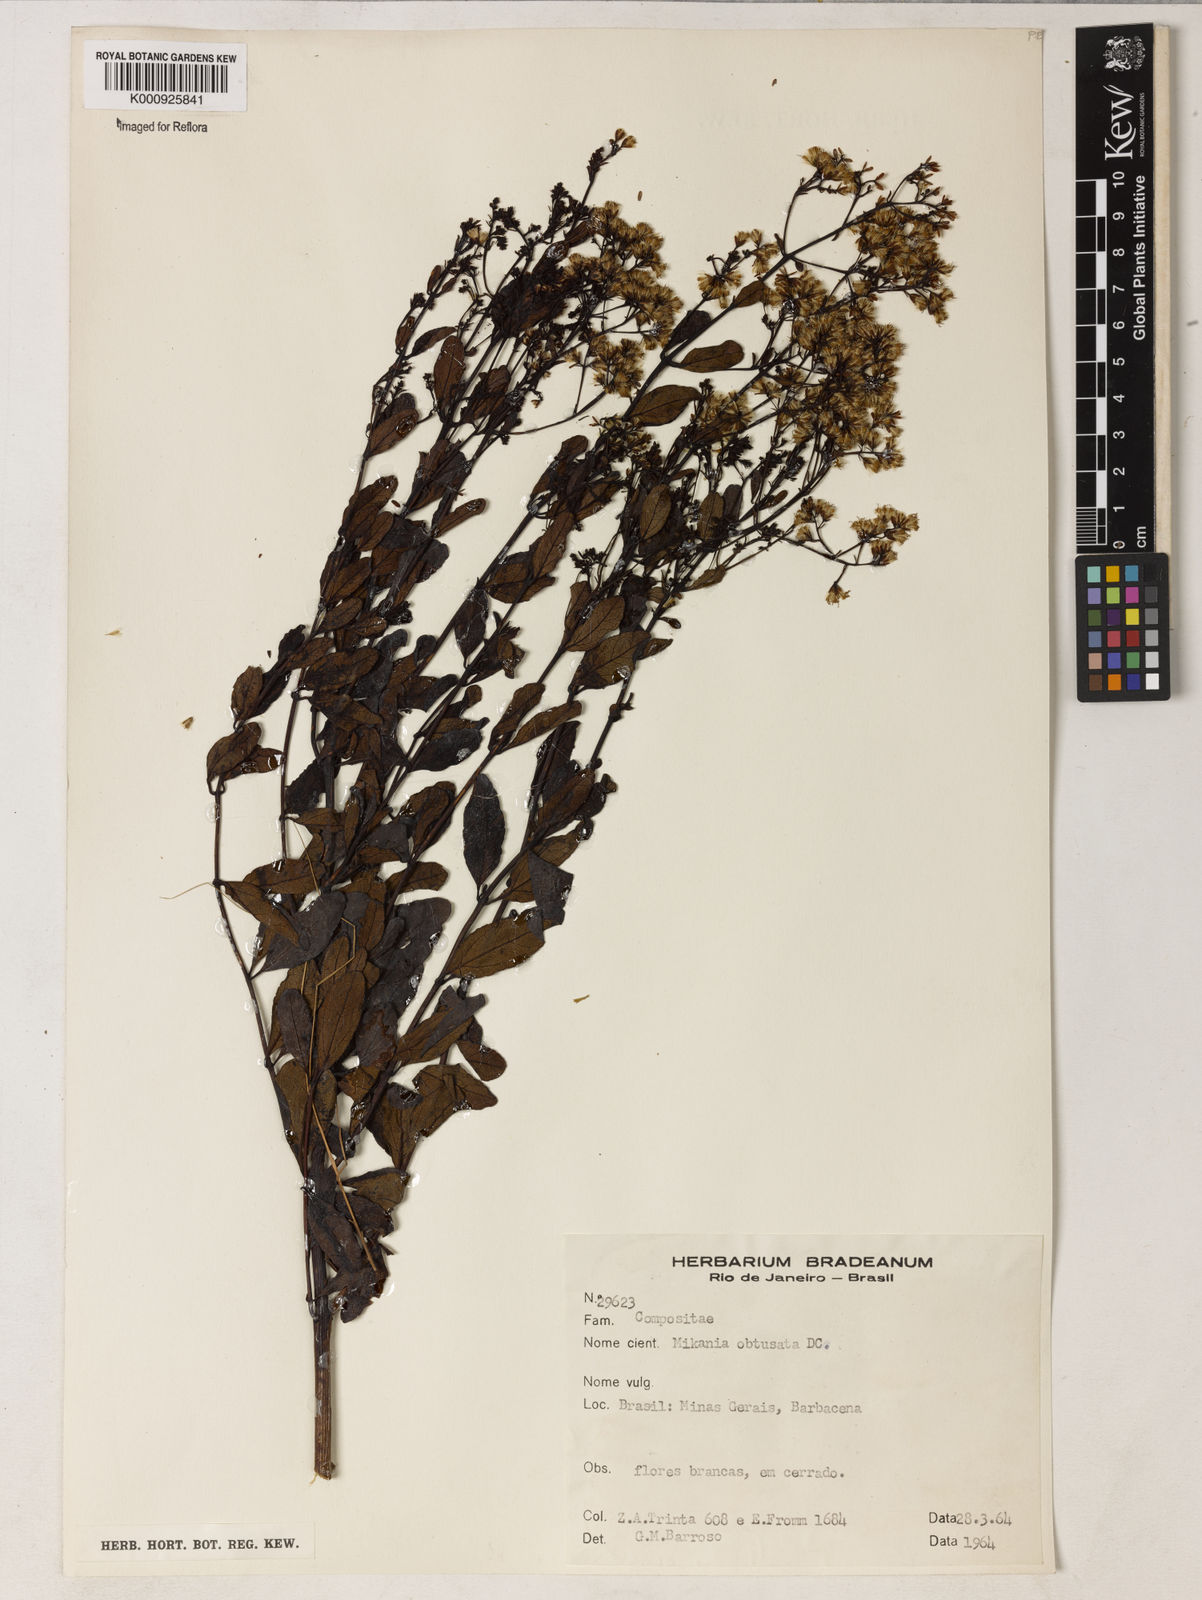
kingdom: Plantae
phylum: Tracheophyta
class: Magnoliopsida
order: Asterales
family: Asteraceae
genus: Mikania
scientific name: Mikania obtusata
